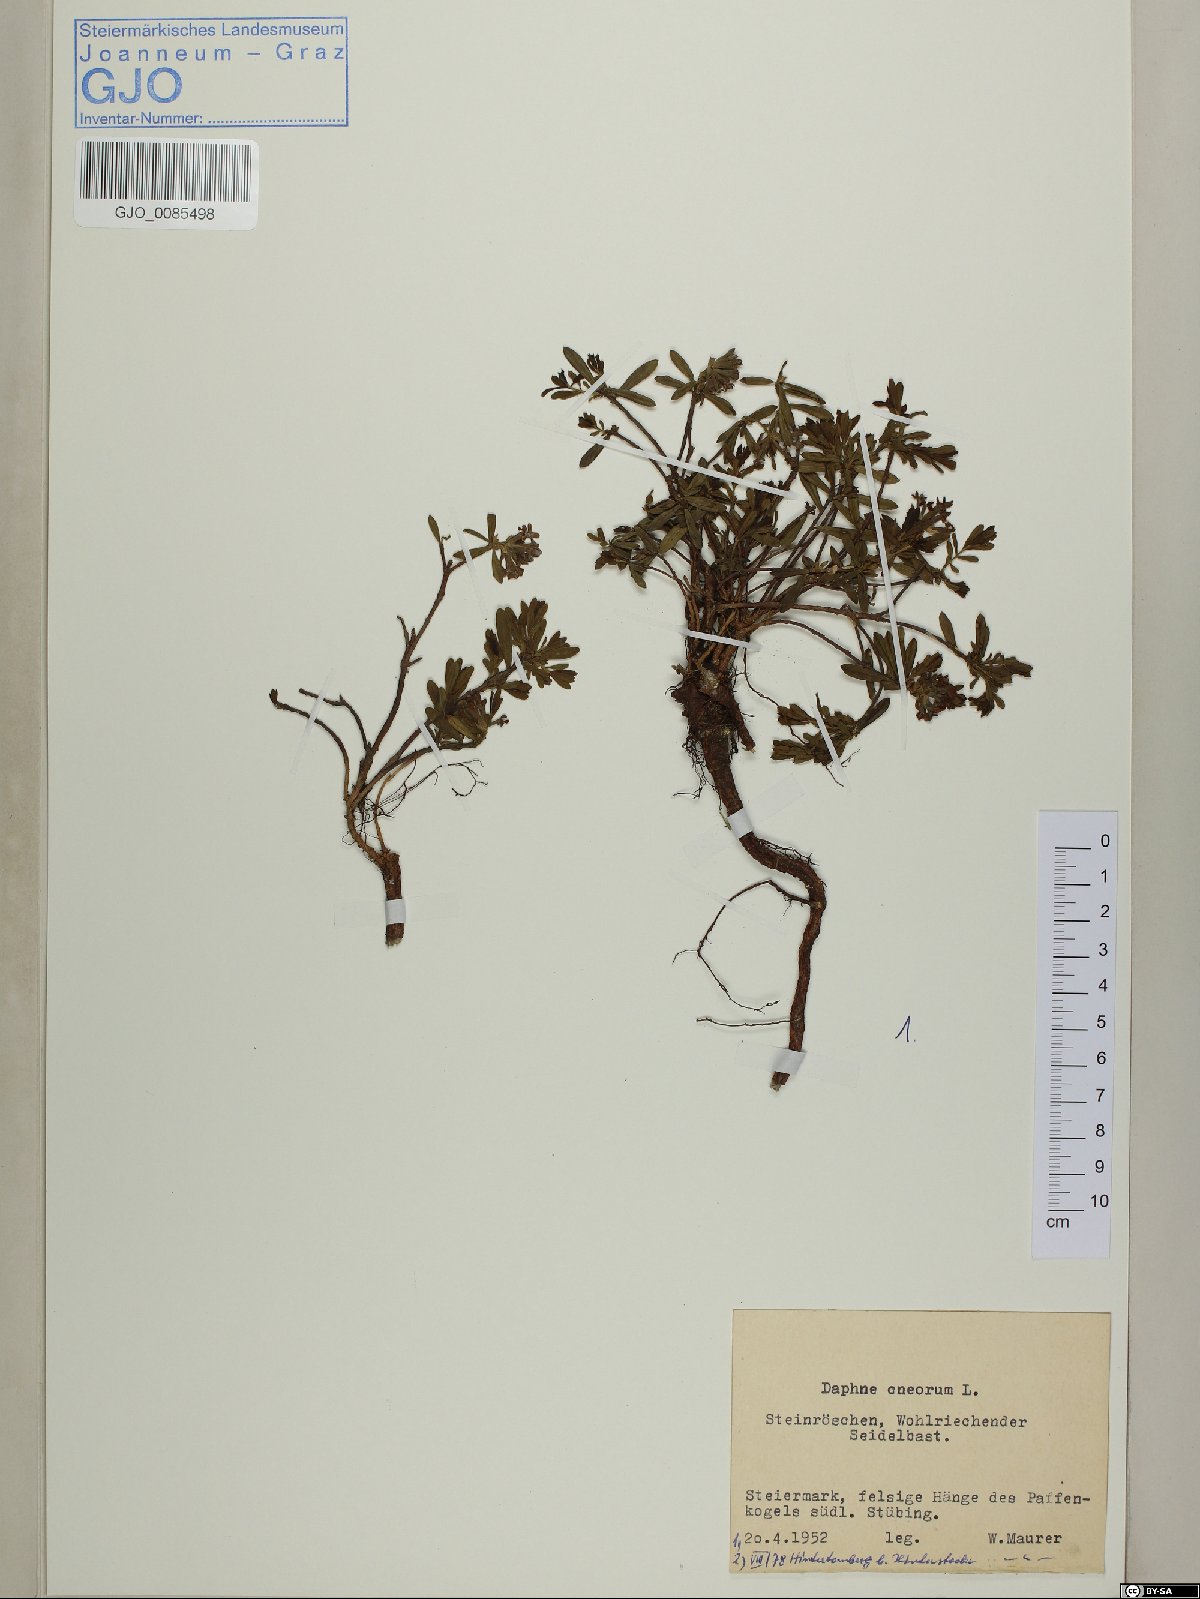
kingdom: Plantae
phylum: Tracheophyta
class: Magnoliopsida
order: Malvales
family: Thymelaeaceae
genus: Daphne
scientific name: Daphne cneorum
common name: Garland-flower
